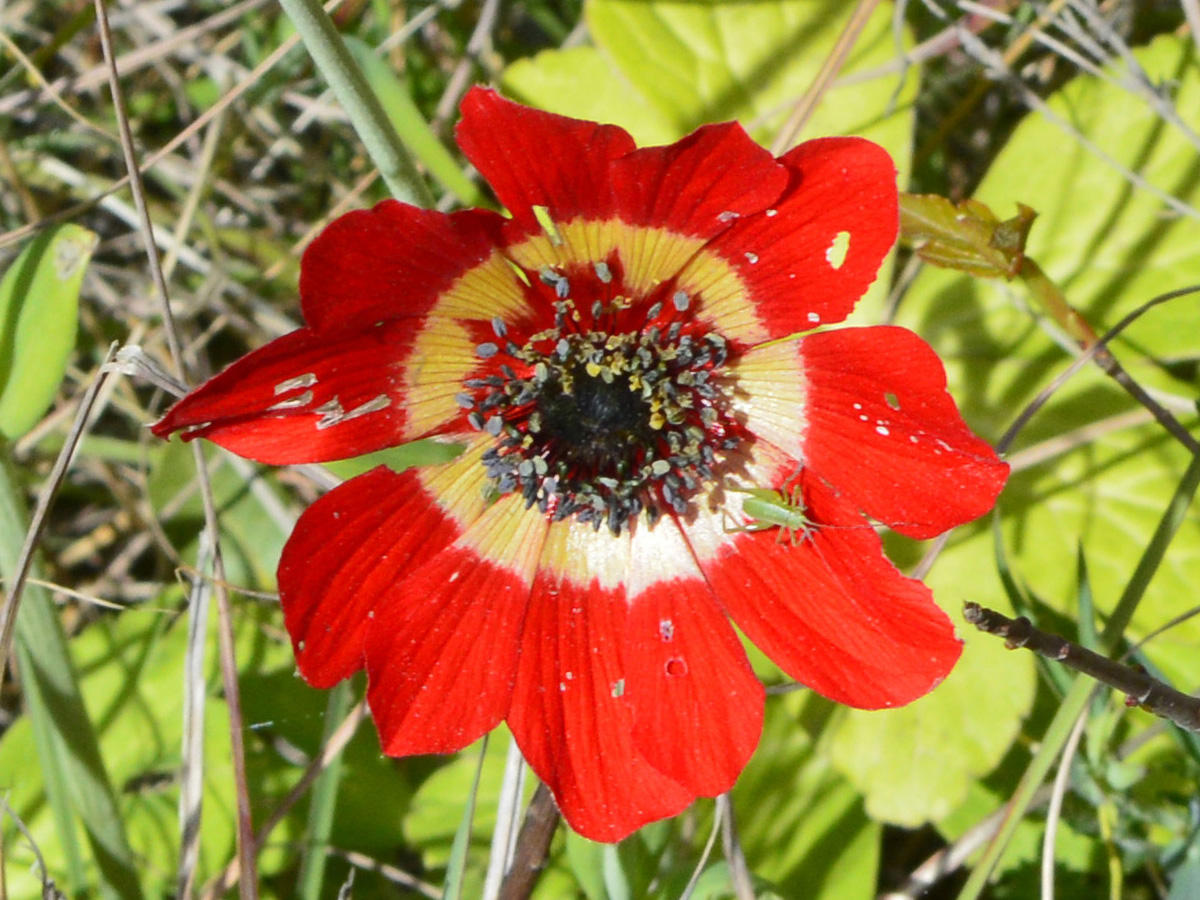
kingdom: Plantae
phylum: Tracheophyta
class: Magnoliopsida
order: Ranunculales
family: Ranunculaceae
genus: Anemone
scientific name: Anemone pavonina
